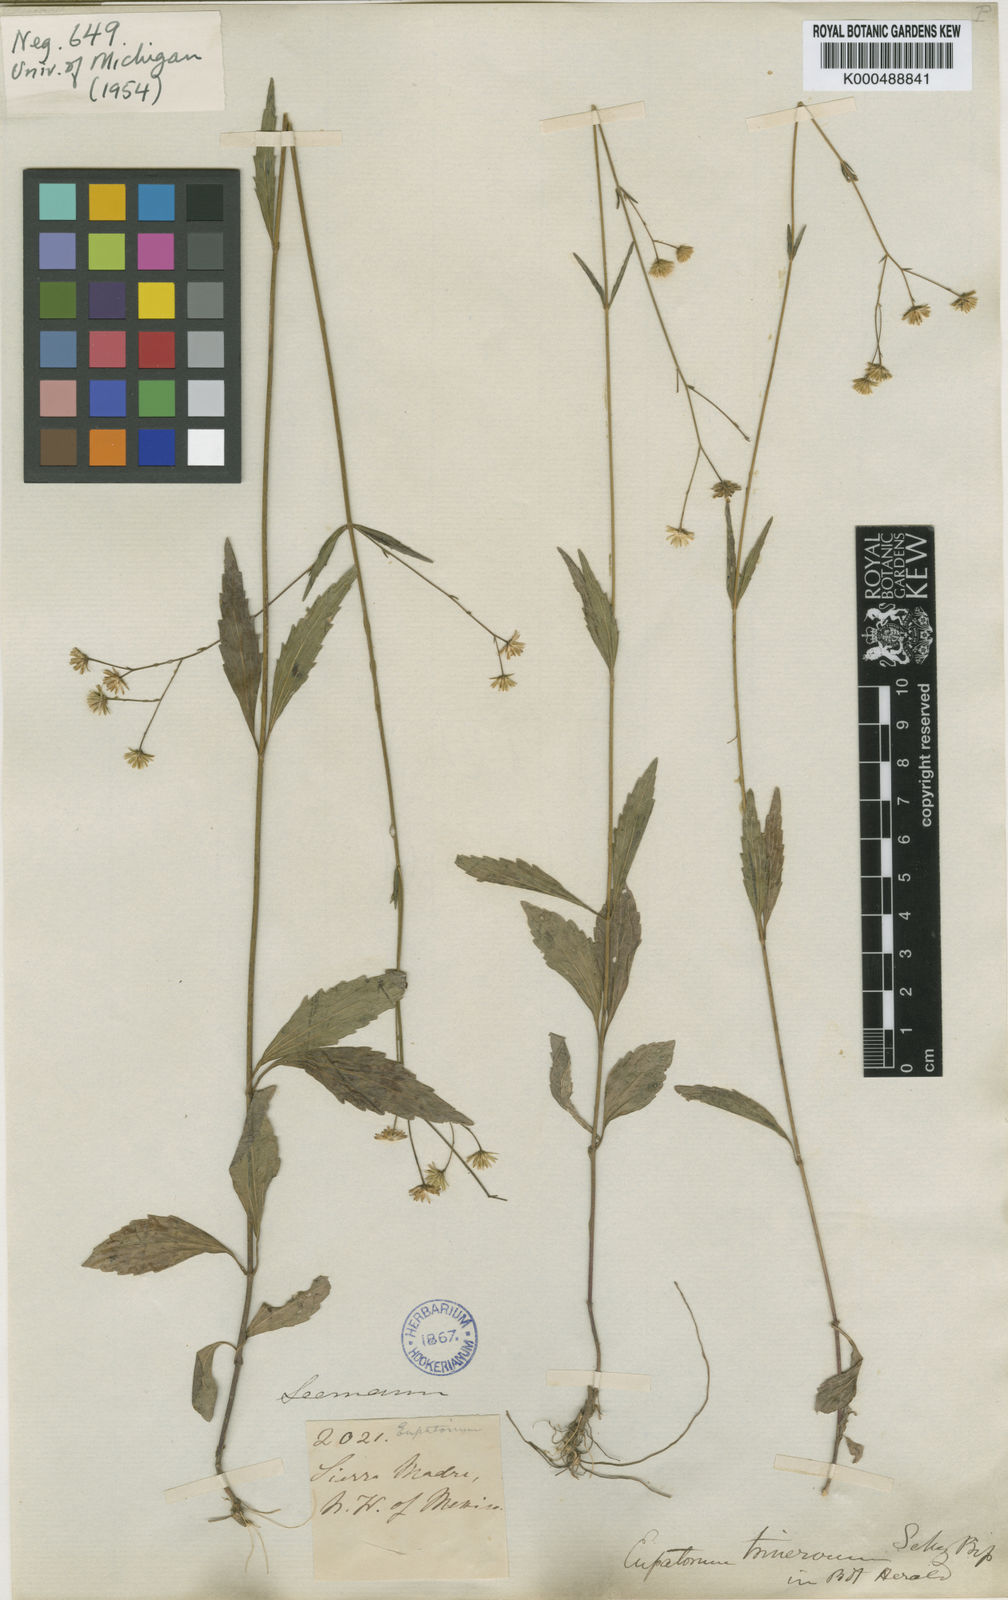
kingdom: Plantae
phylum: Tracheophyta
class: Magnoliopsida
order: Asterales
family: Asteraceae
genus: Fleischmannia
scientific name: Fleischmannia trinervia
